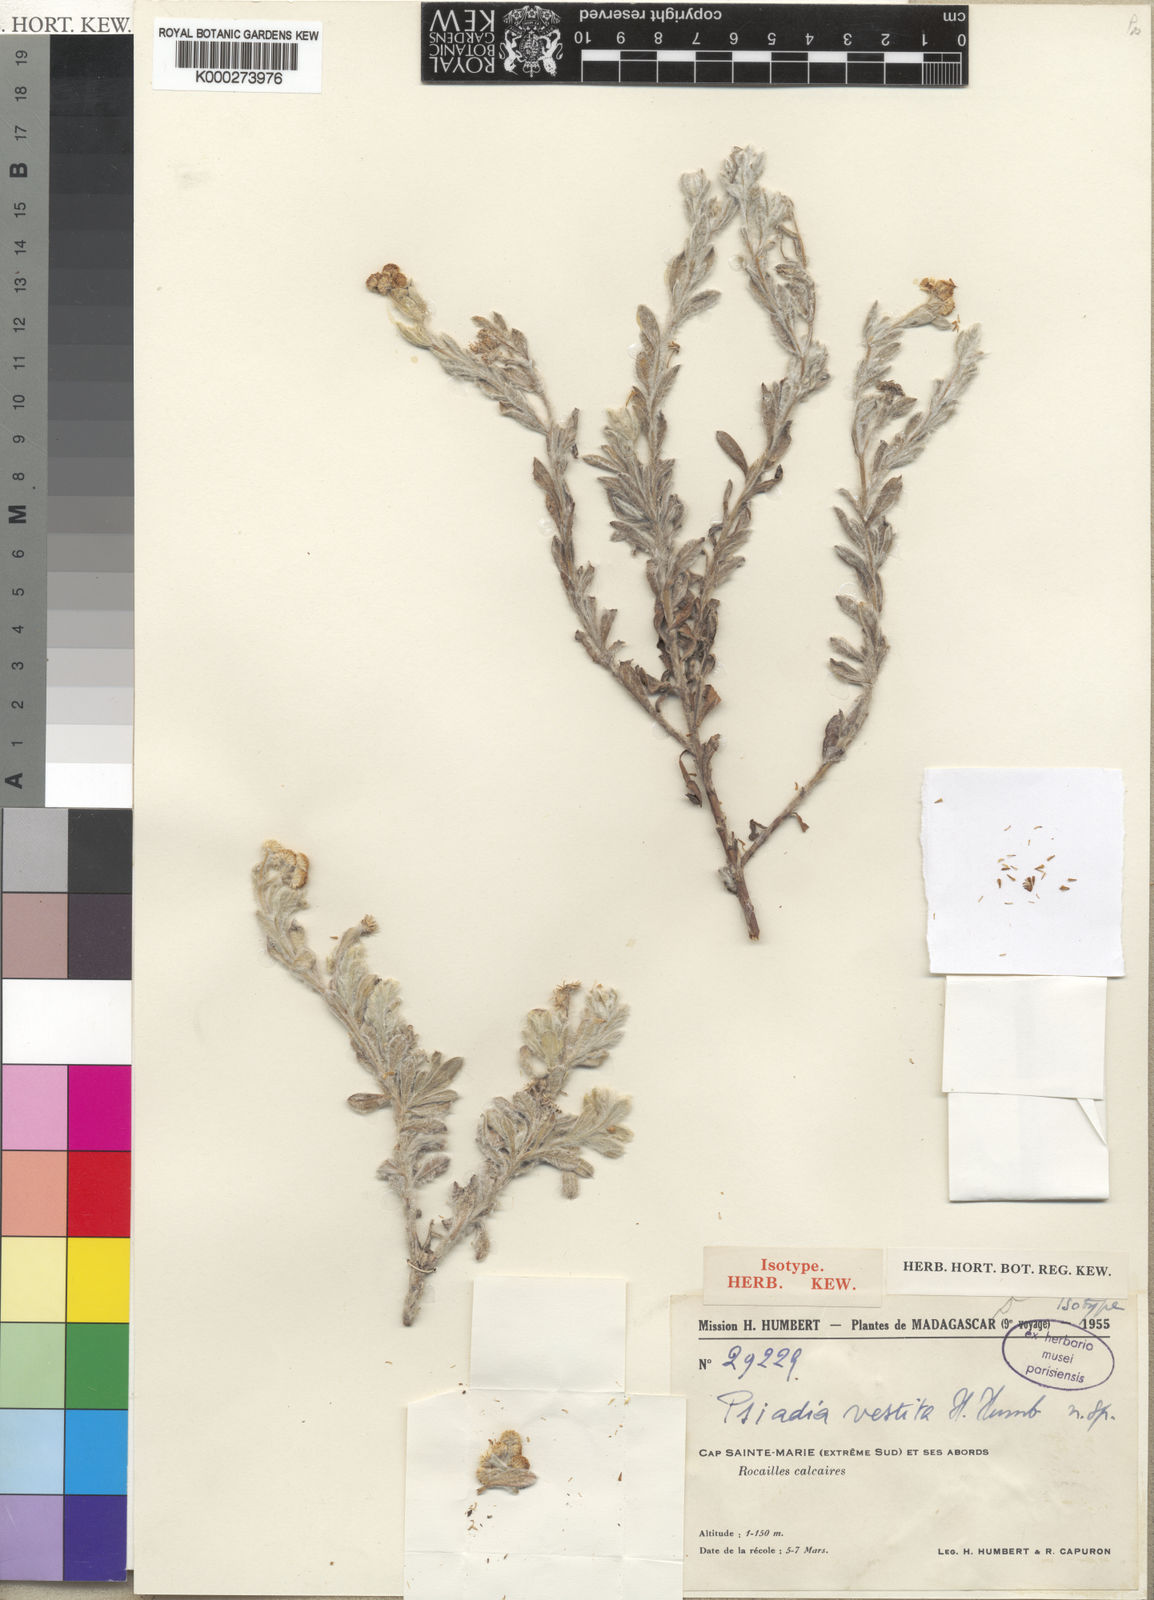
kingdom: Plantae
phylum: Tracheophyta
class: Magnoliopsida
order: Asterales
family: Asteraceae
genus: Psiadia
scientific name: Psiadia vestita
